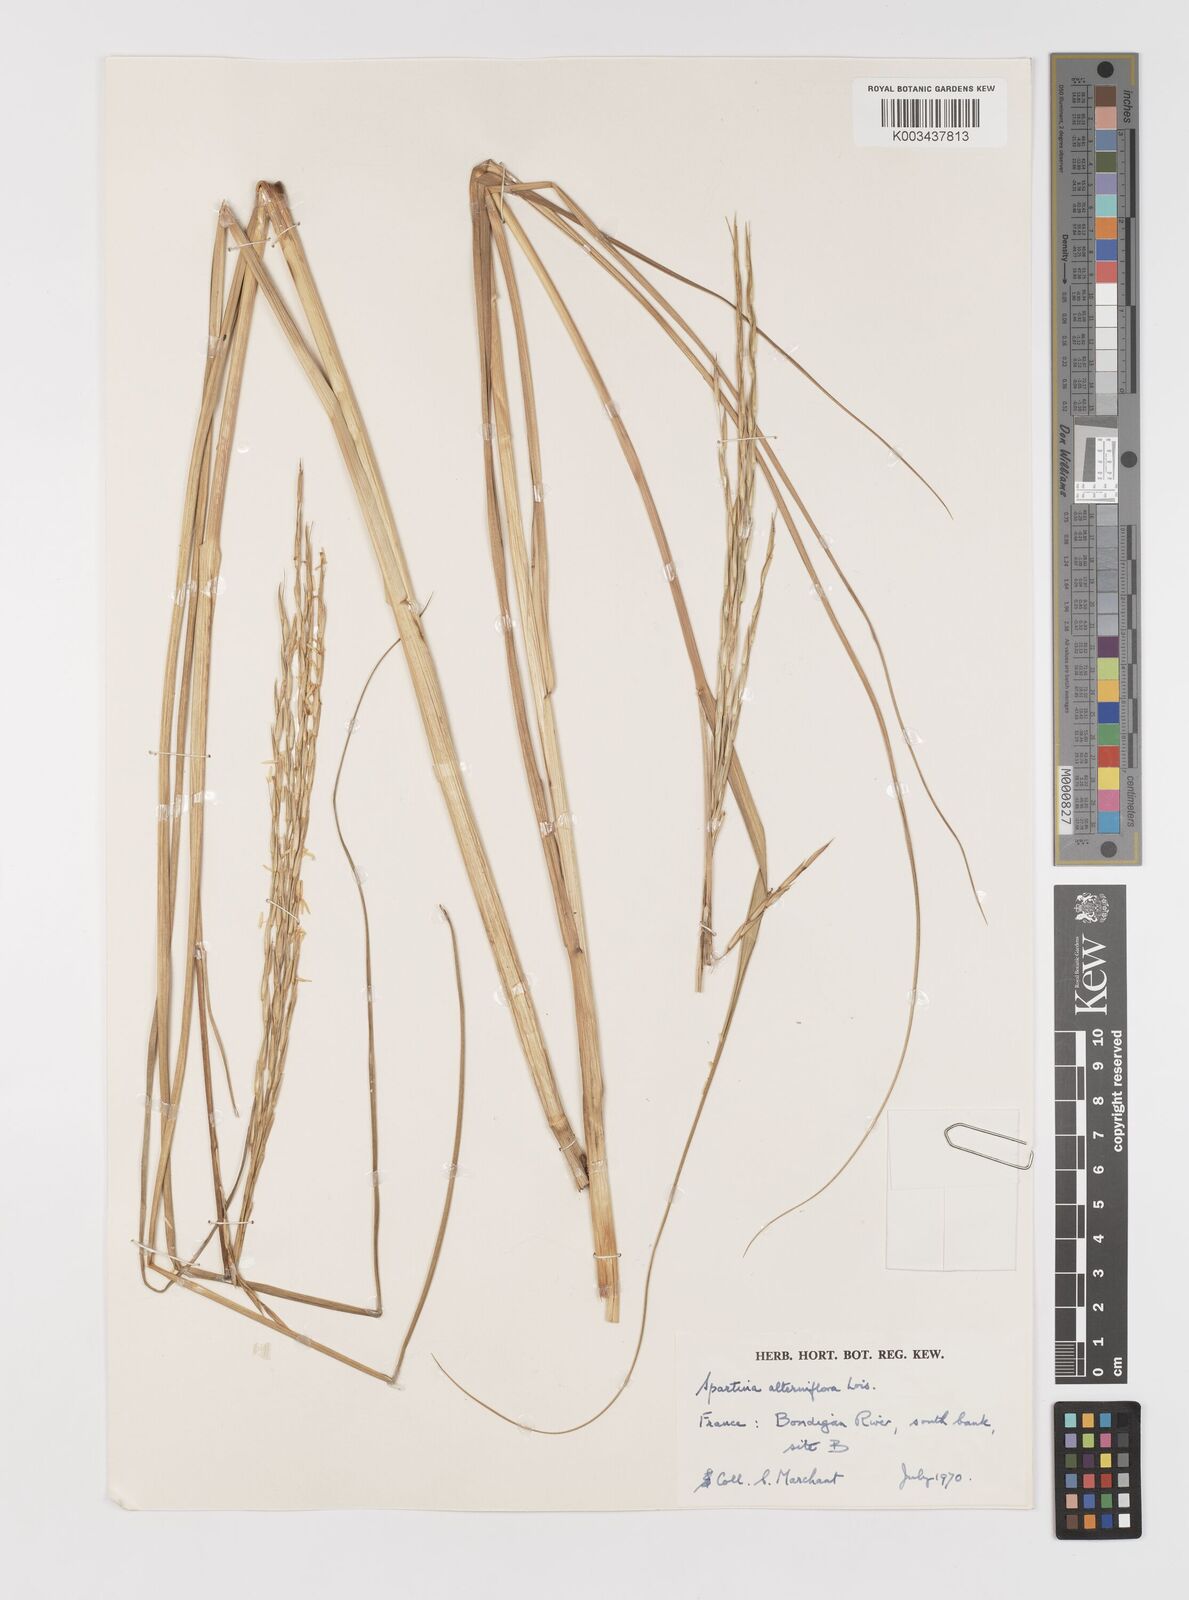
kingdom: Plantae
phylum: Tracheophyta
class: Liliopsida
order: Poales
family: Poaceae
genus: Sporobolus
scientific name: Sporobolus alterniflorus
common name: Atlantic cordgrass
